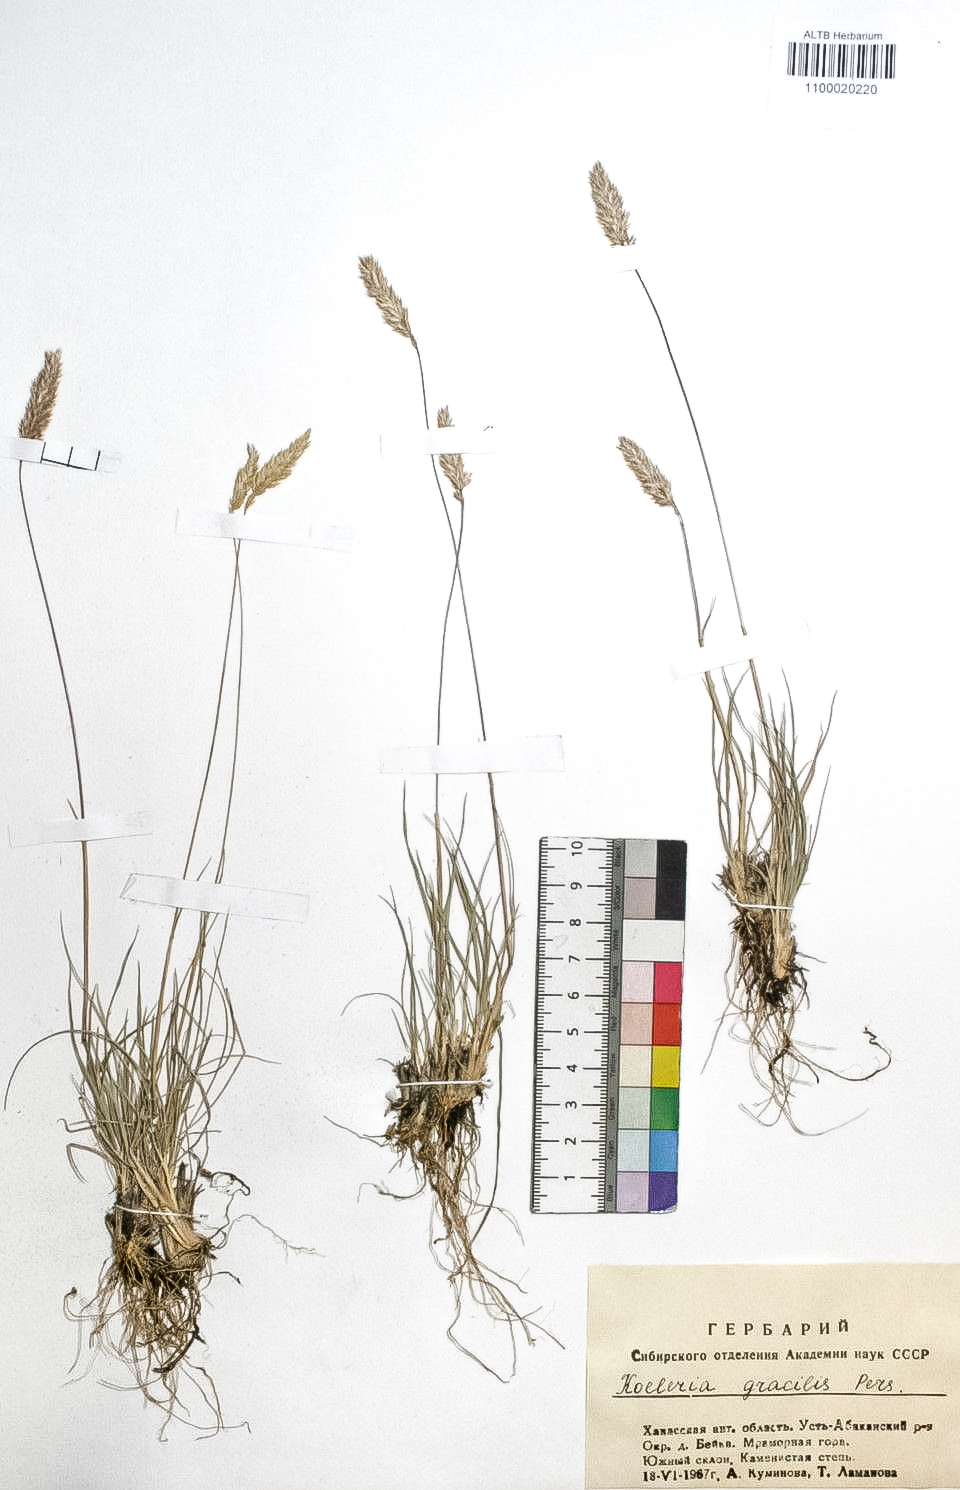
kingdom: Plantae
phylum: Tracheophyta
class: Liliopsida
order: Poales
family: Poaceae
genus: Koeleria
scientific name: Koeleria macrantha
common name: Crested hair-grass
